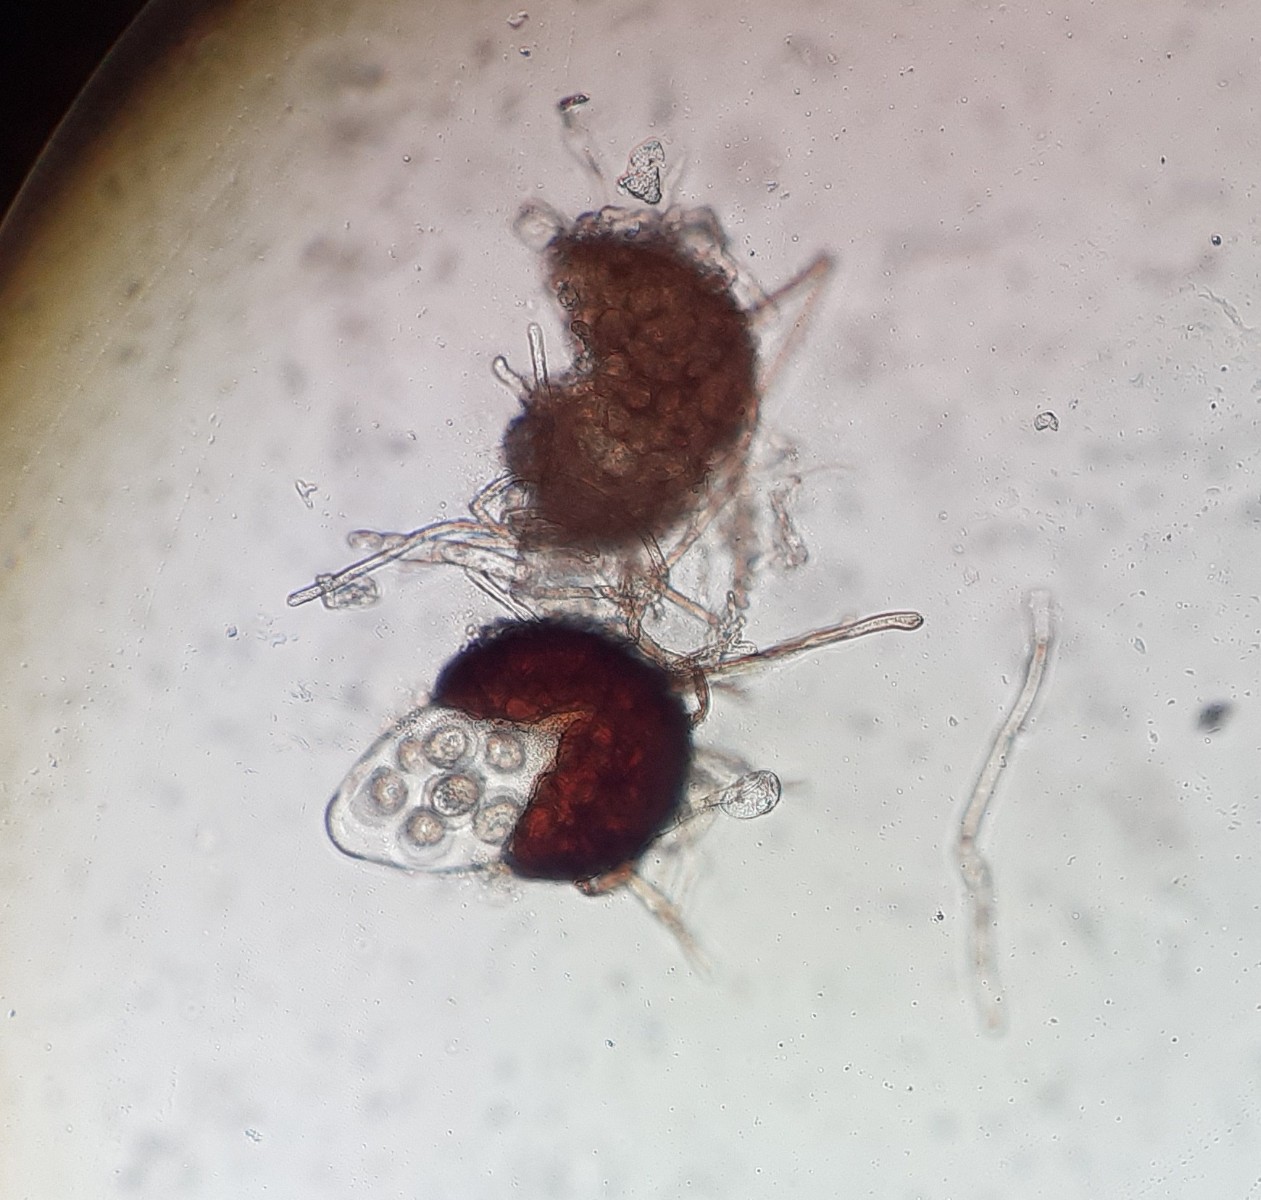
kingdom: Fungi
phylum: Ascomycota
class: Leotiomycetes
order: Helotiales
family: Erysiphaceae
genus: Podosphaera
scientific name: Podosphaera aphanis
